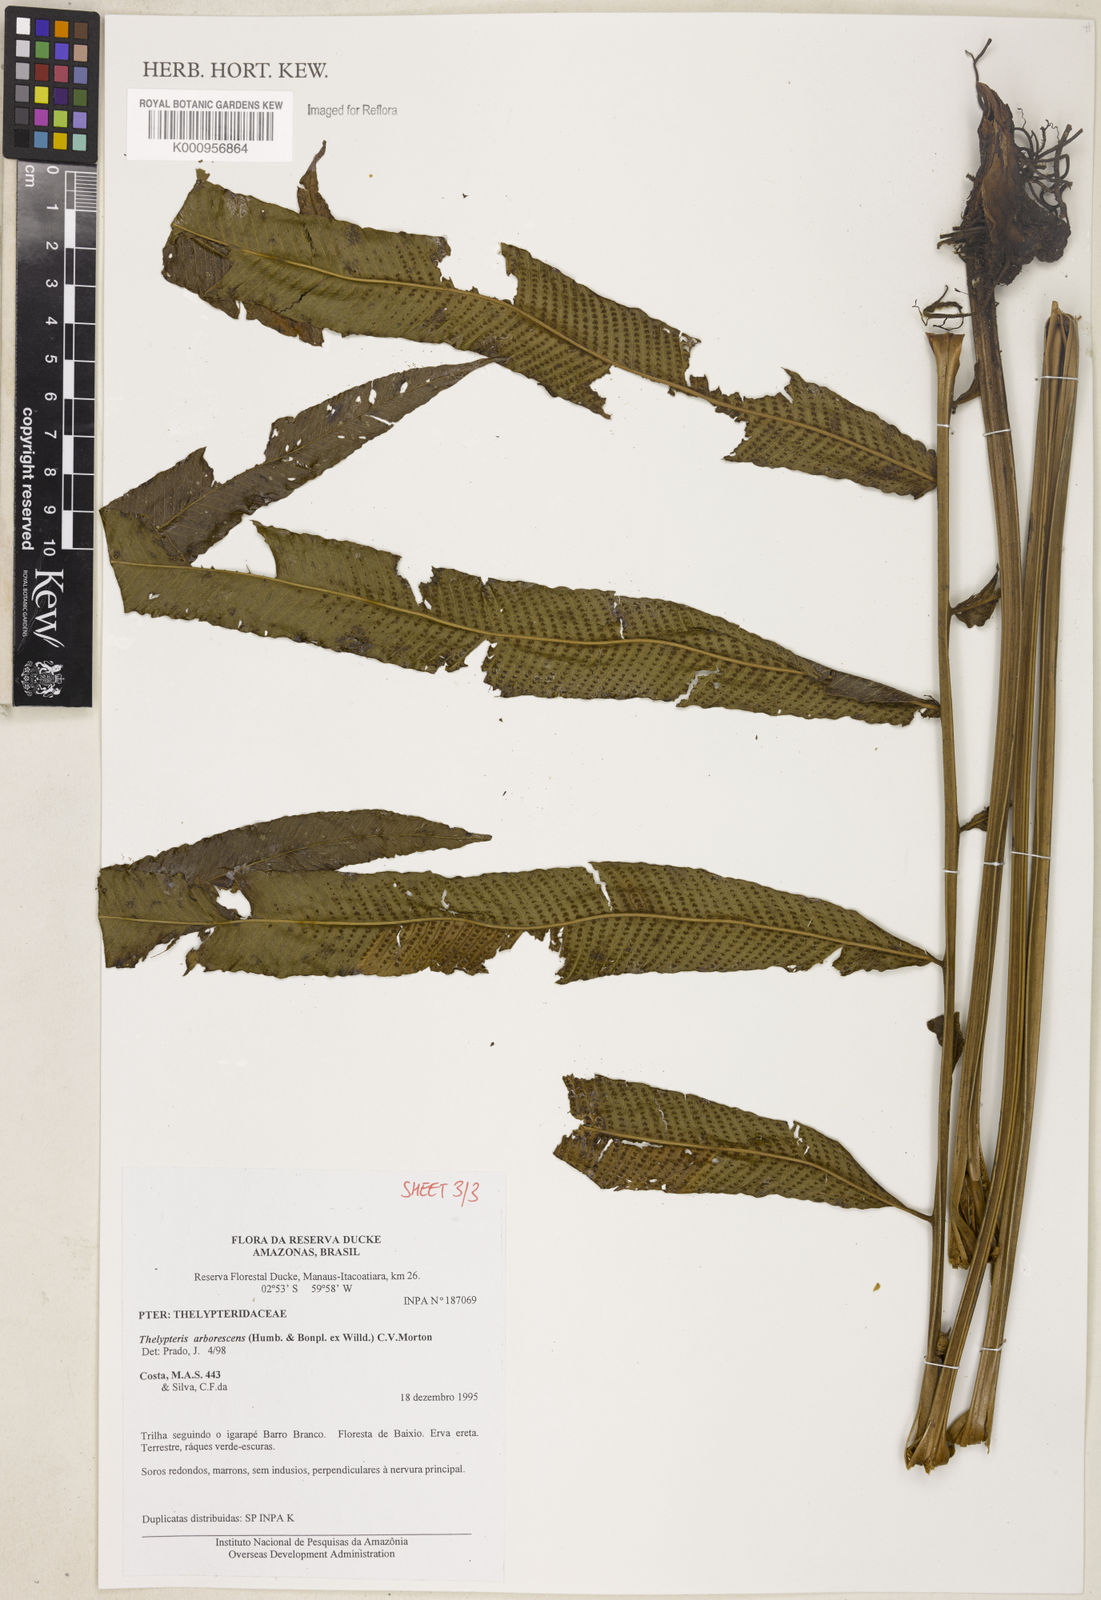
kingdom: Plantae
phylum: Tracheophyta
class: Polypodiopsida
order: Polypodiales
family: Thelypteridaceae
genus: Meniscium
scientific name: Meniscium arborescens
